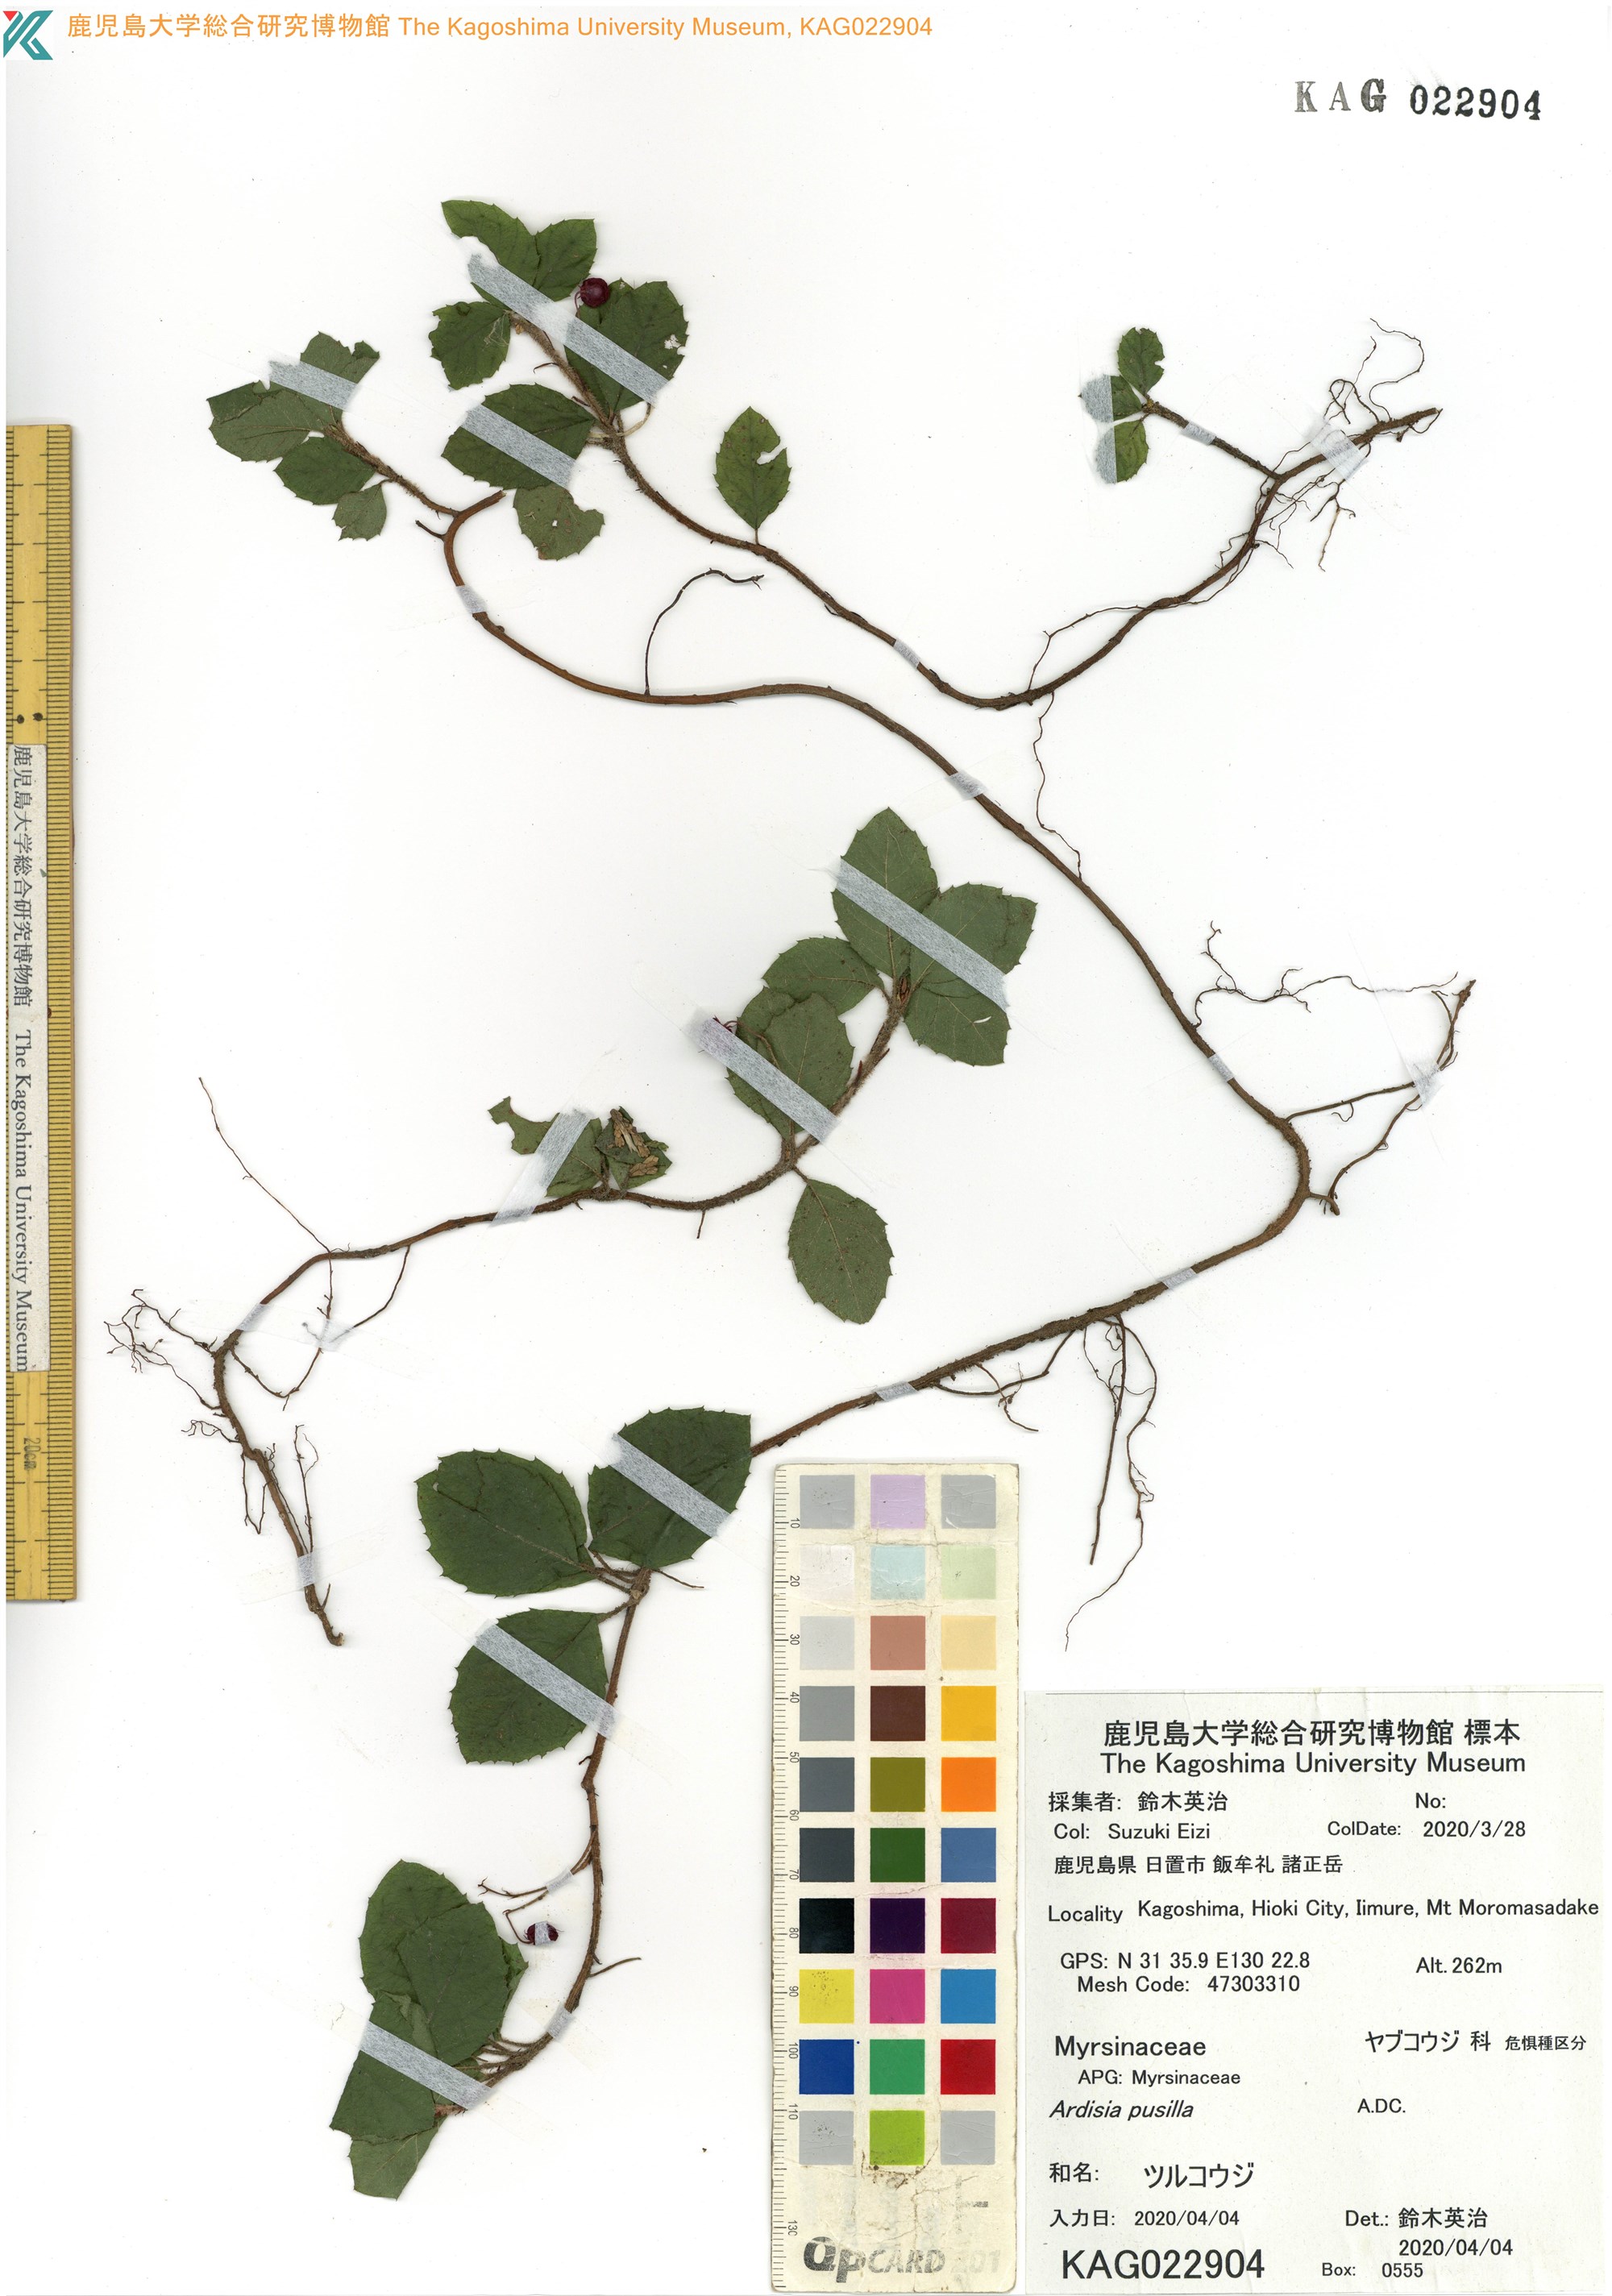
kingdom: Plantae
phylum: Tracheophyta
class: Magnoliopsida
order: Ericales
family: Primulaceae
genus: Ardisia
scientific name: Ardisia pusilla
